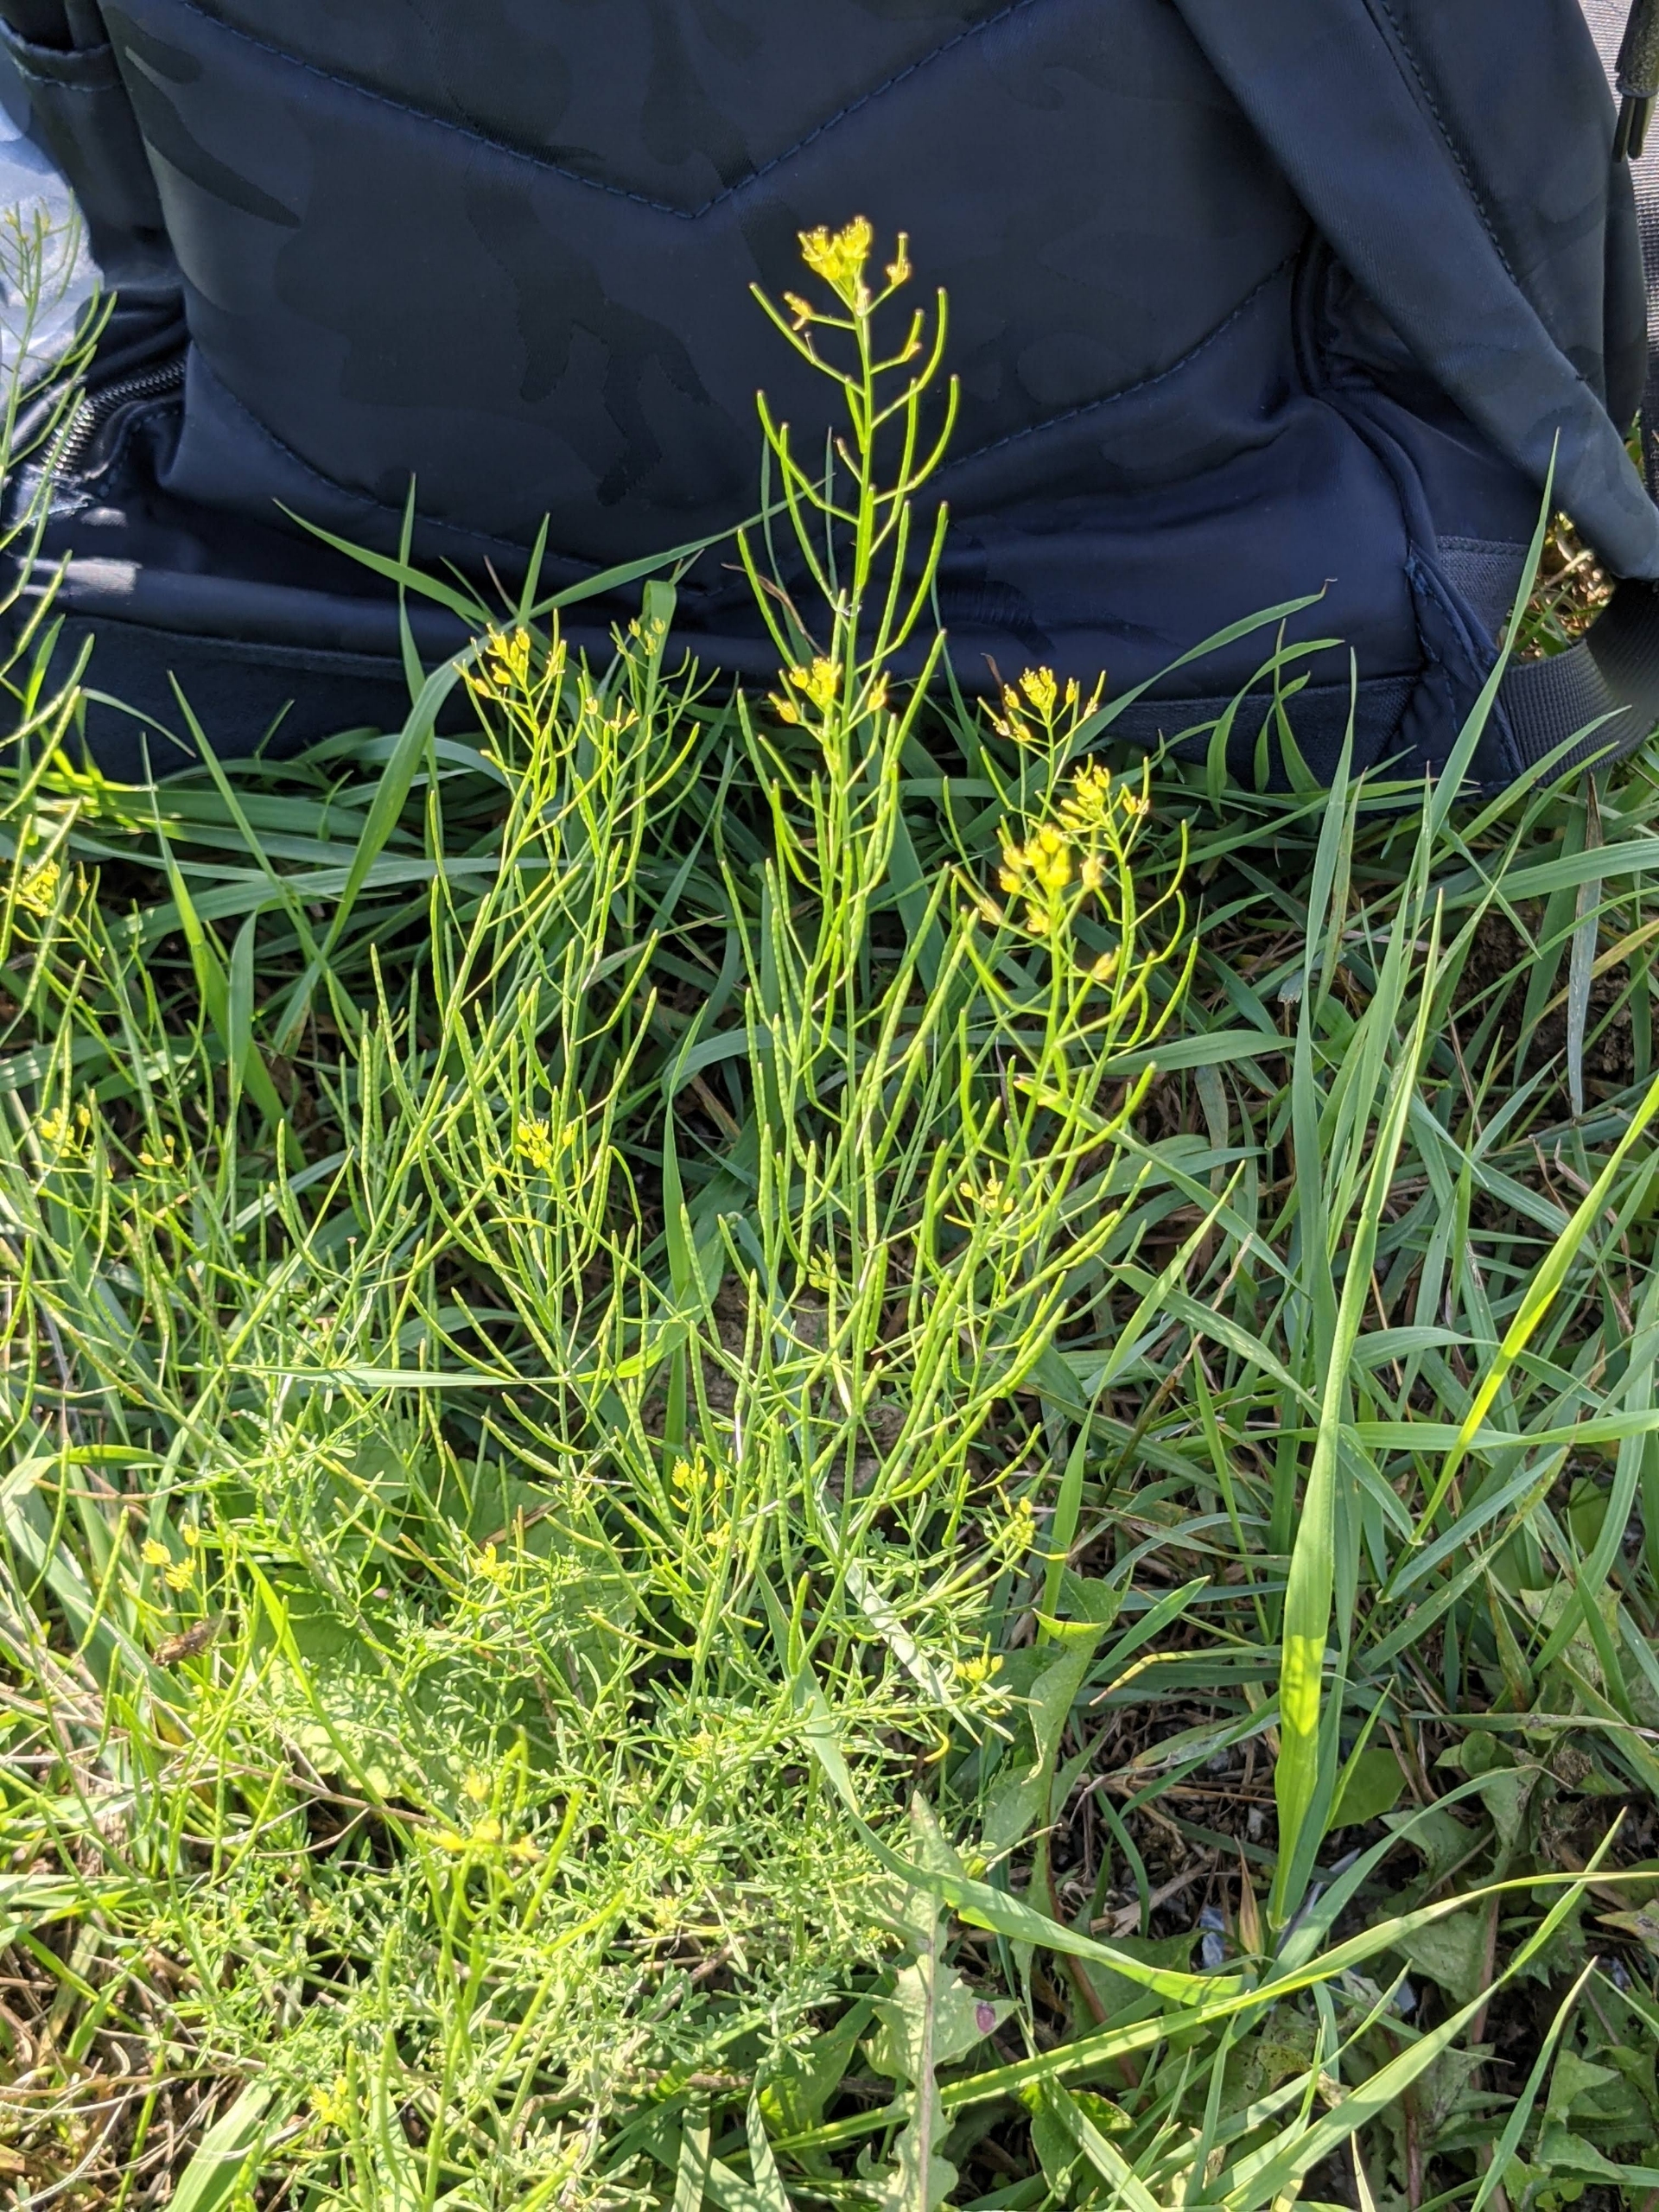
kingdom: Plantae
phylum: Tracheophyta
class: Magnoliopsida
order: Brassicales
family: Brassicaceae
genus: Descurainia
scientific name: Descurainia sophia
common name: Finbladet vejsennep
